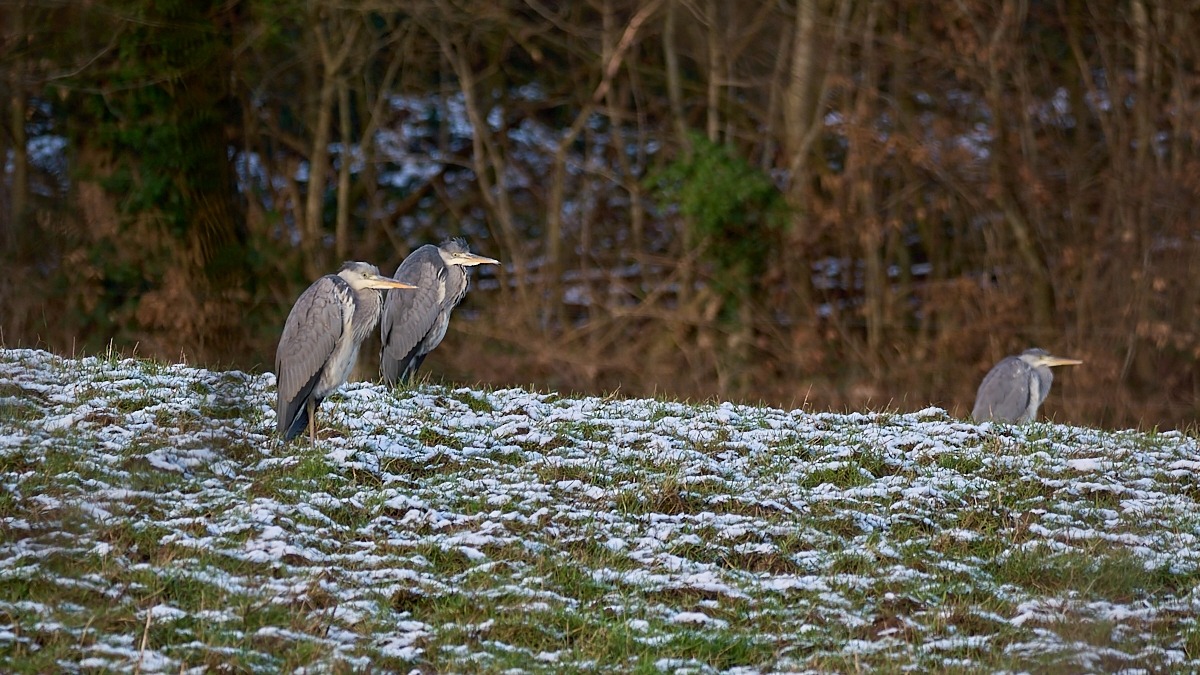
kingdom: Animalia
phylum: Chordata
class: Aves
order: Pelecaniformes
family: Ardeidae
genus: Ardea
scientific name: Ardea cinerea
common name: Fiskehejre
